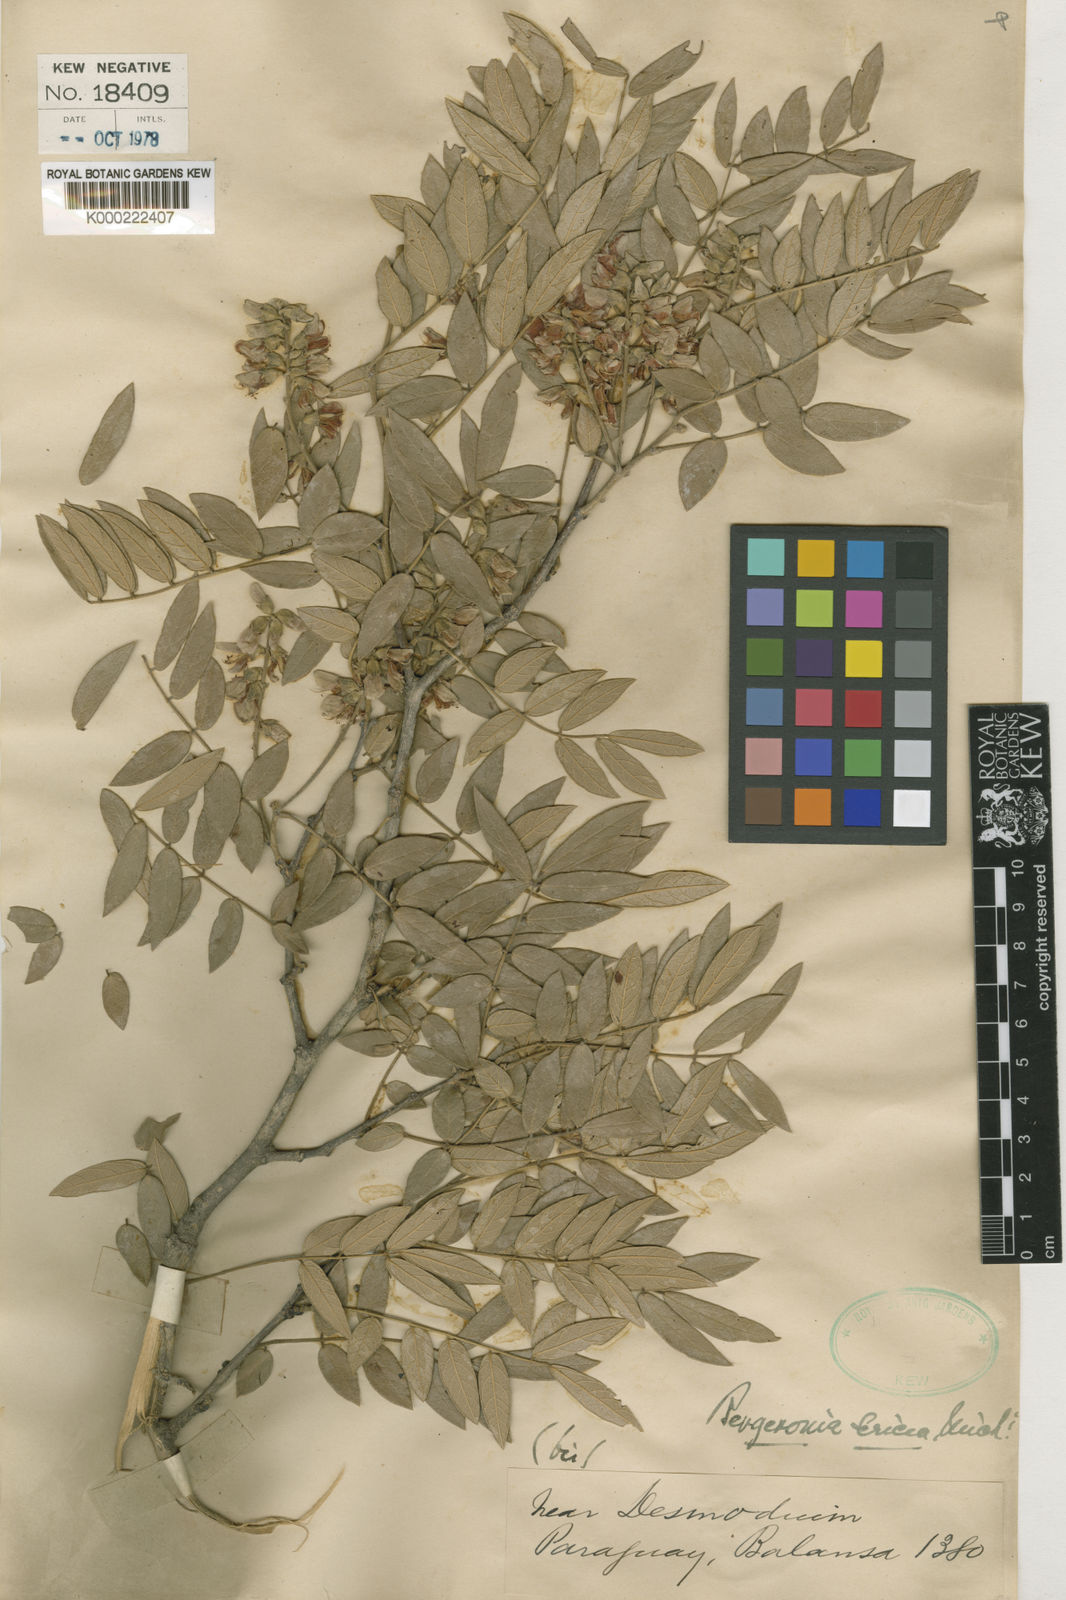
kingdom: Plantae
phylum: Tracheophyta
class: Magnoliopsida
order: Fabales
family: Fabaceae
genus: Muellera
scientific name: Muellera sericea
